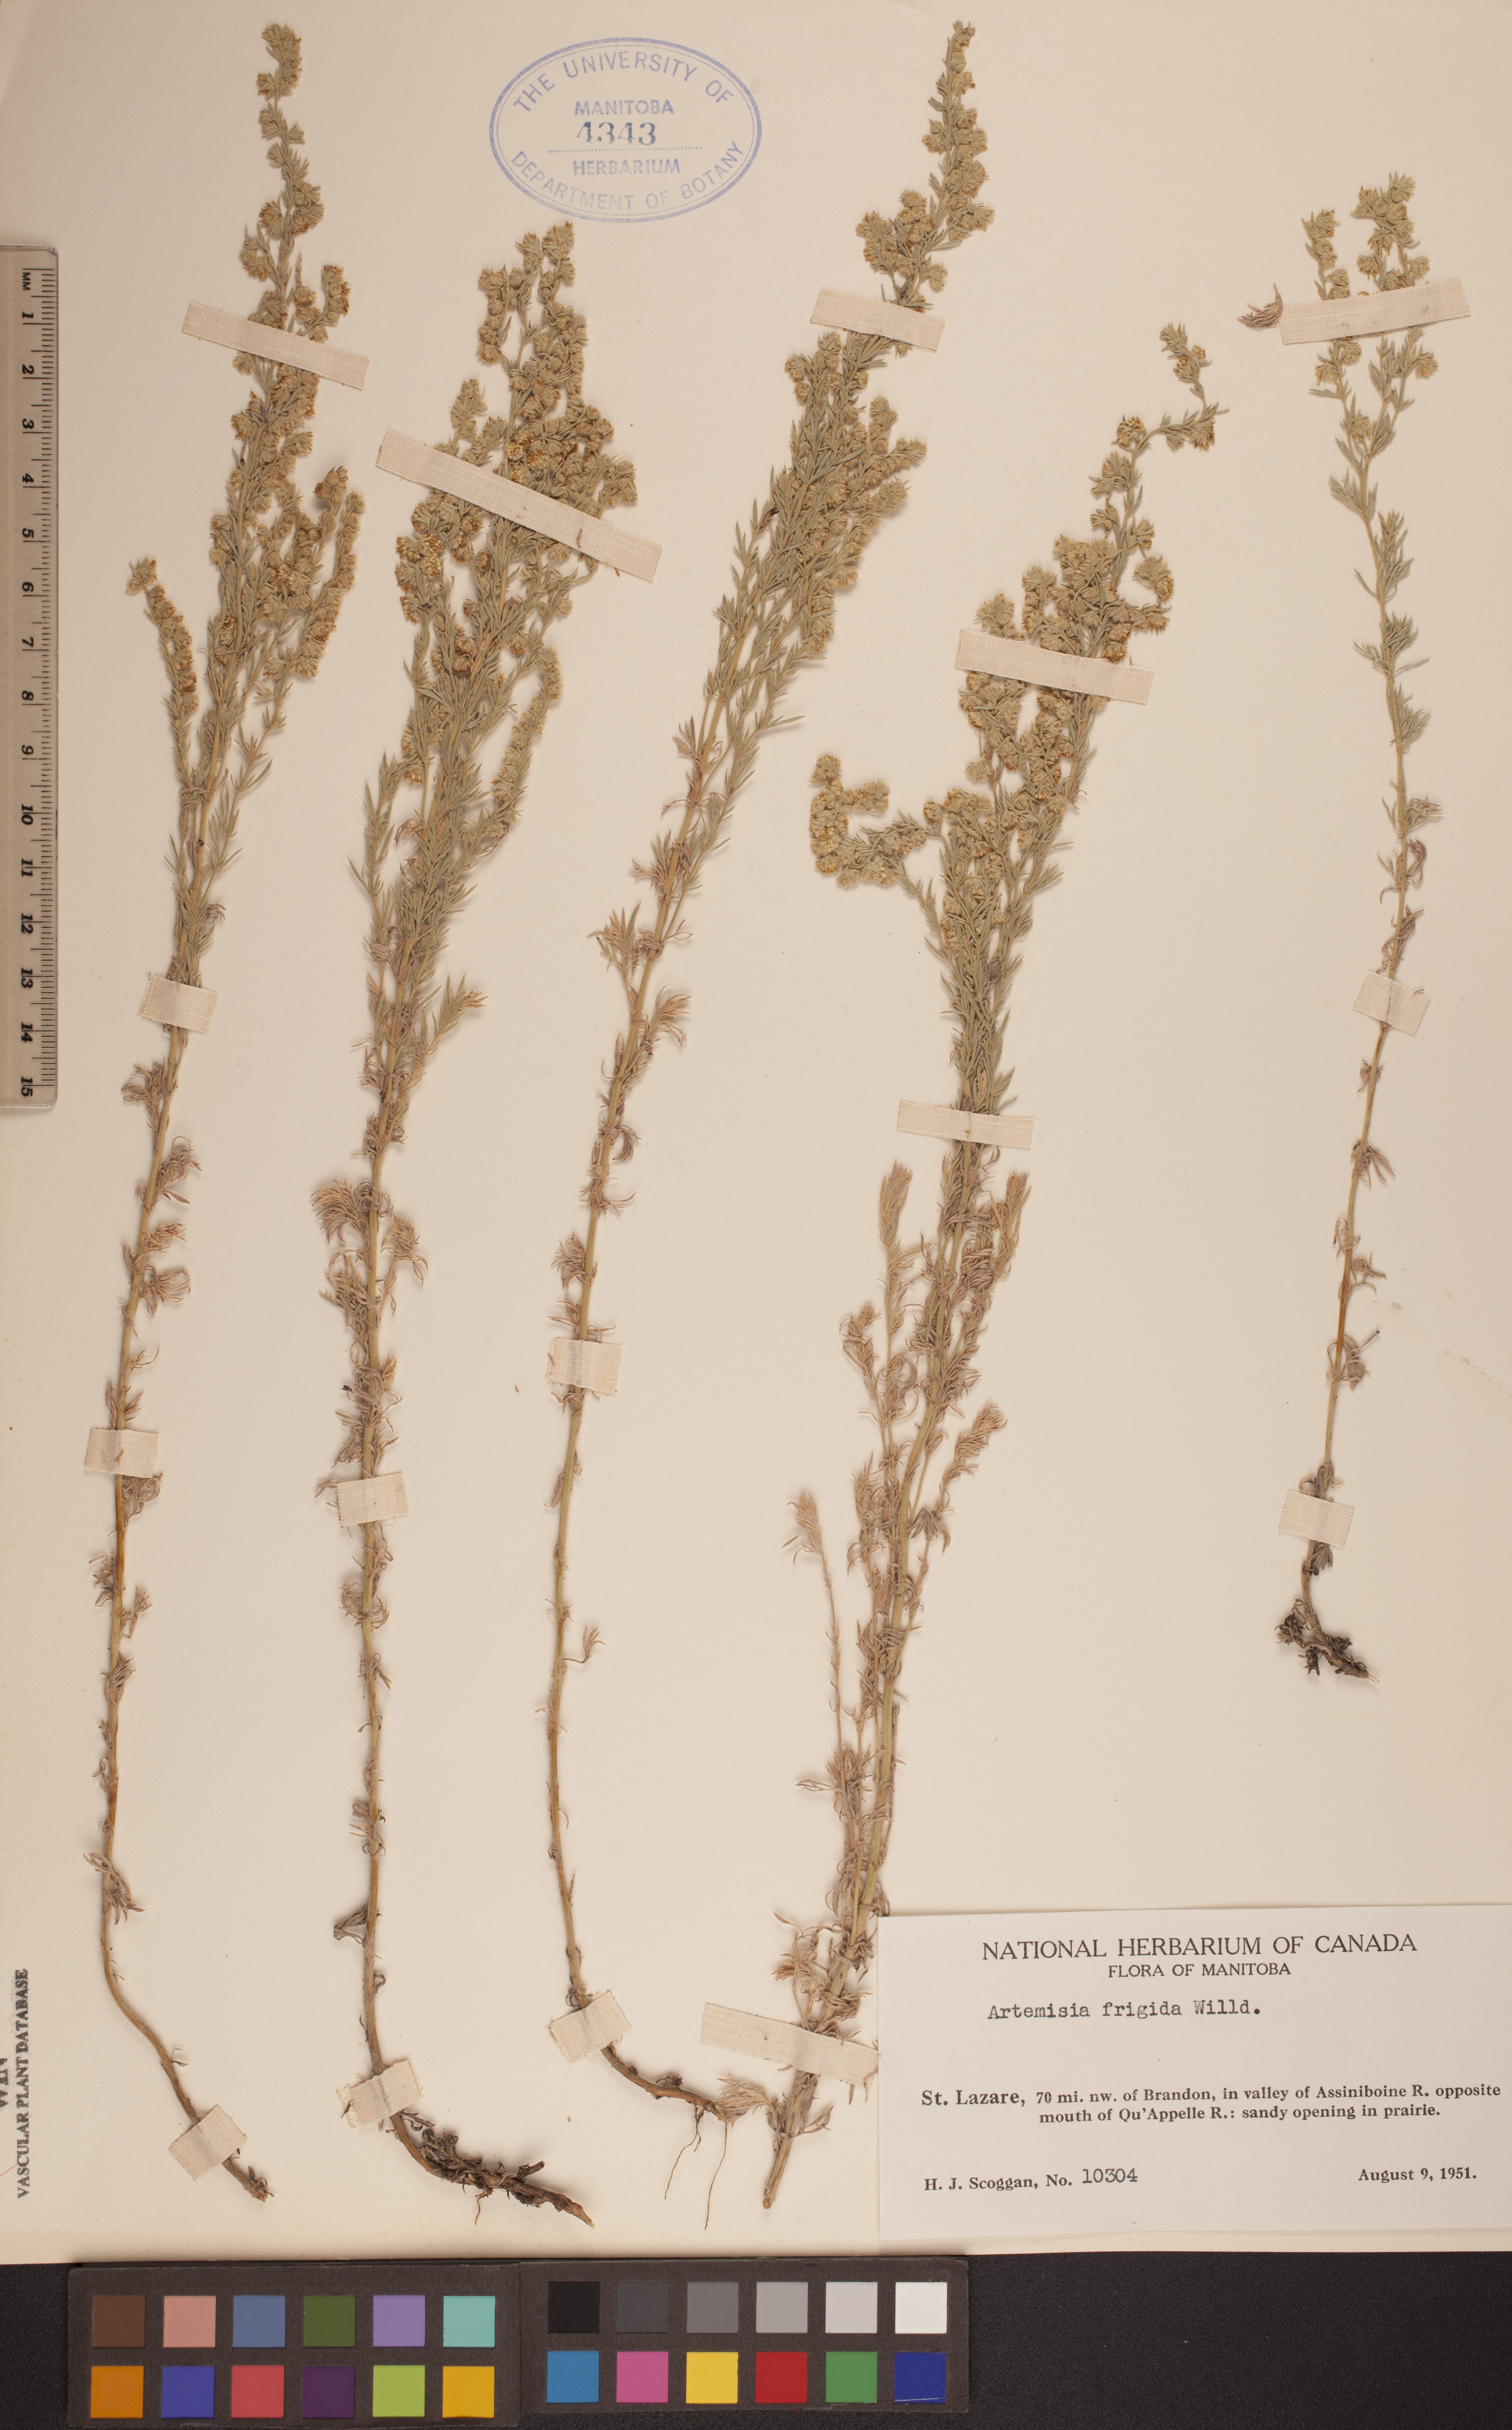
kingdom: Plantae
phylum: Tracheophyta
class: Magnoliopsida
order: Asterales
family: Asteraceae
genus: Artemisia
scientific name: Artemisia frigida
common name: Prairie sagewort
